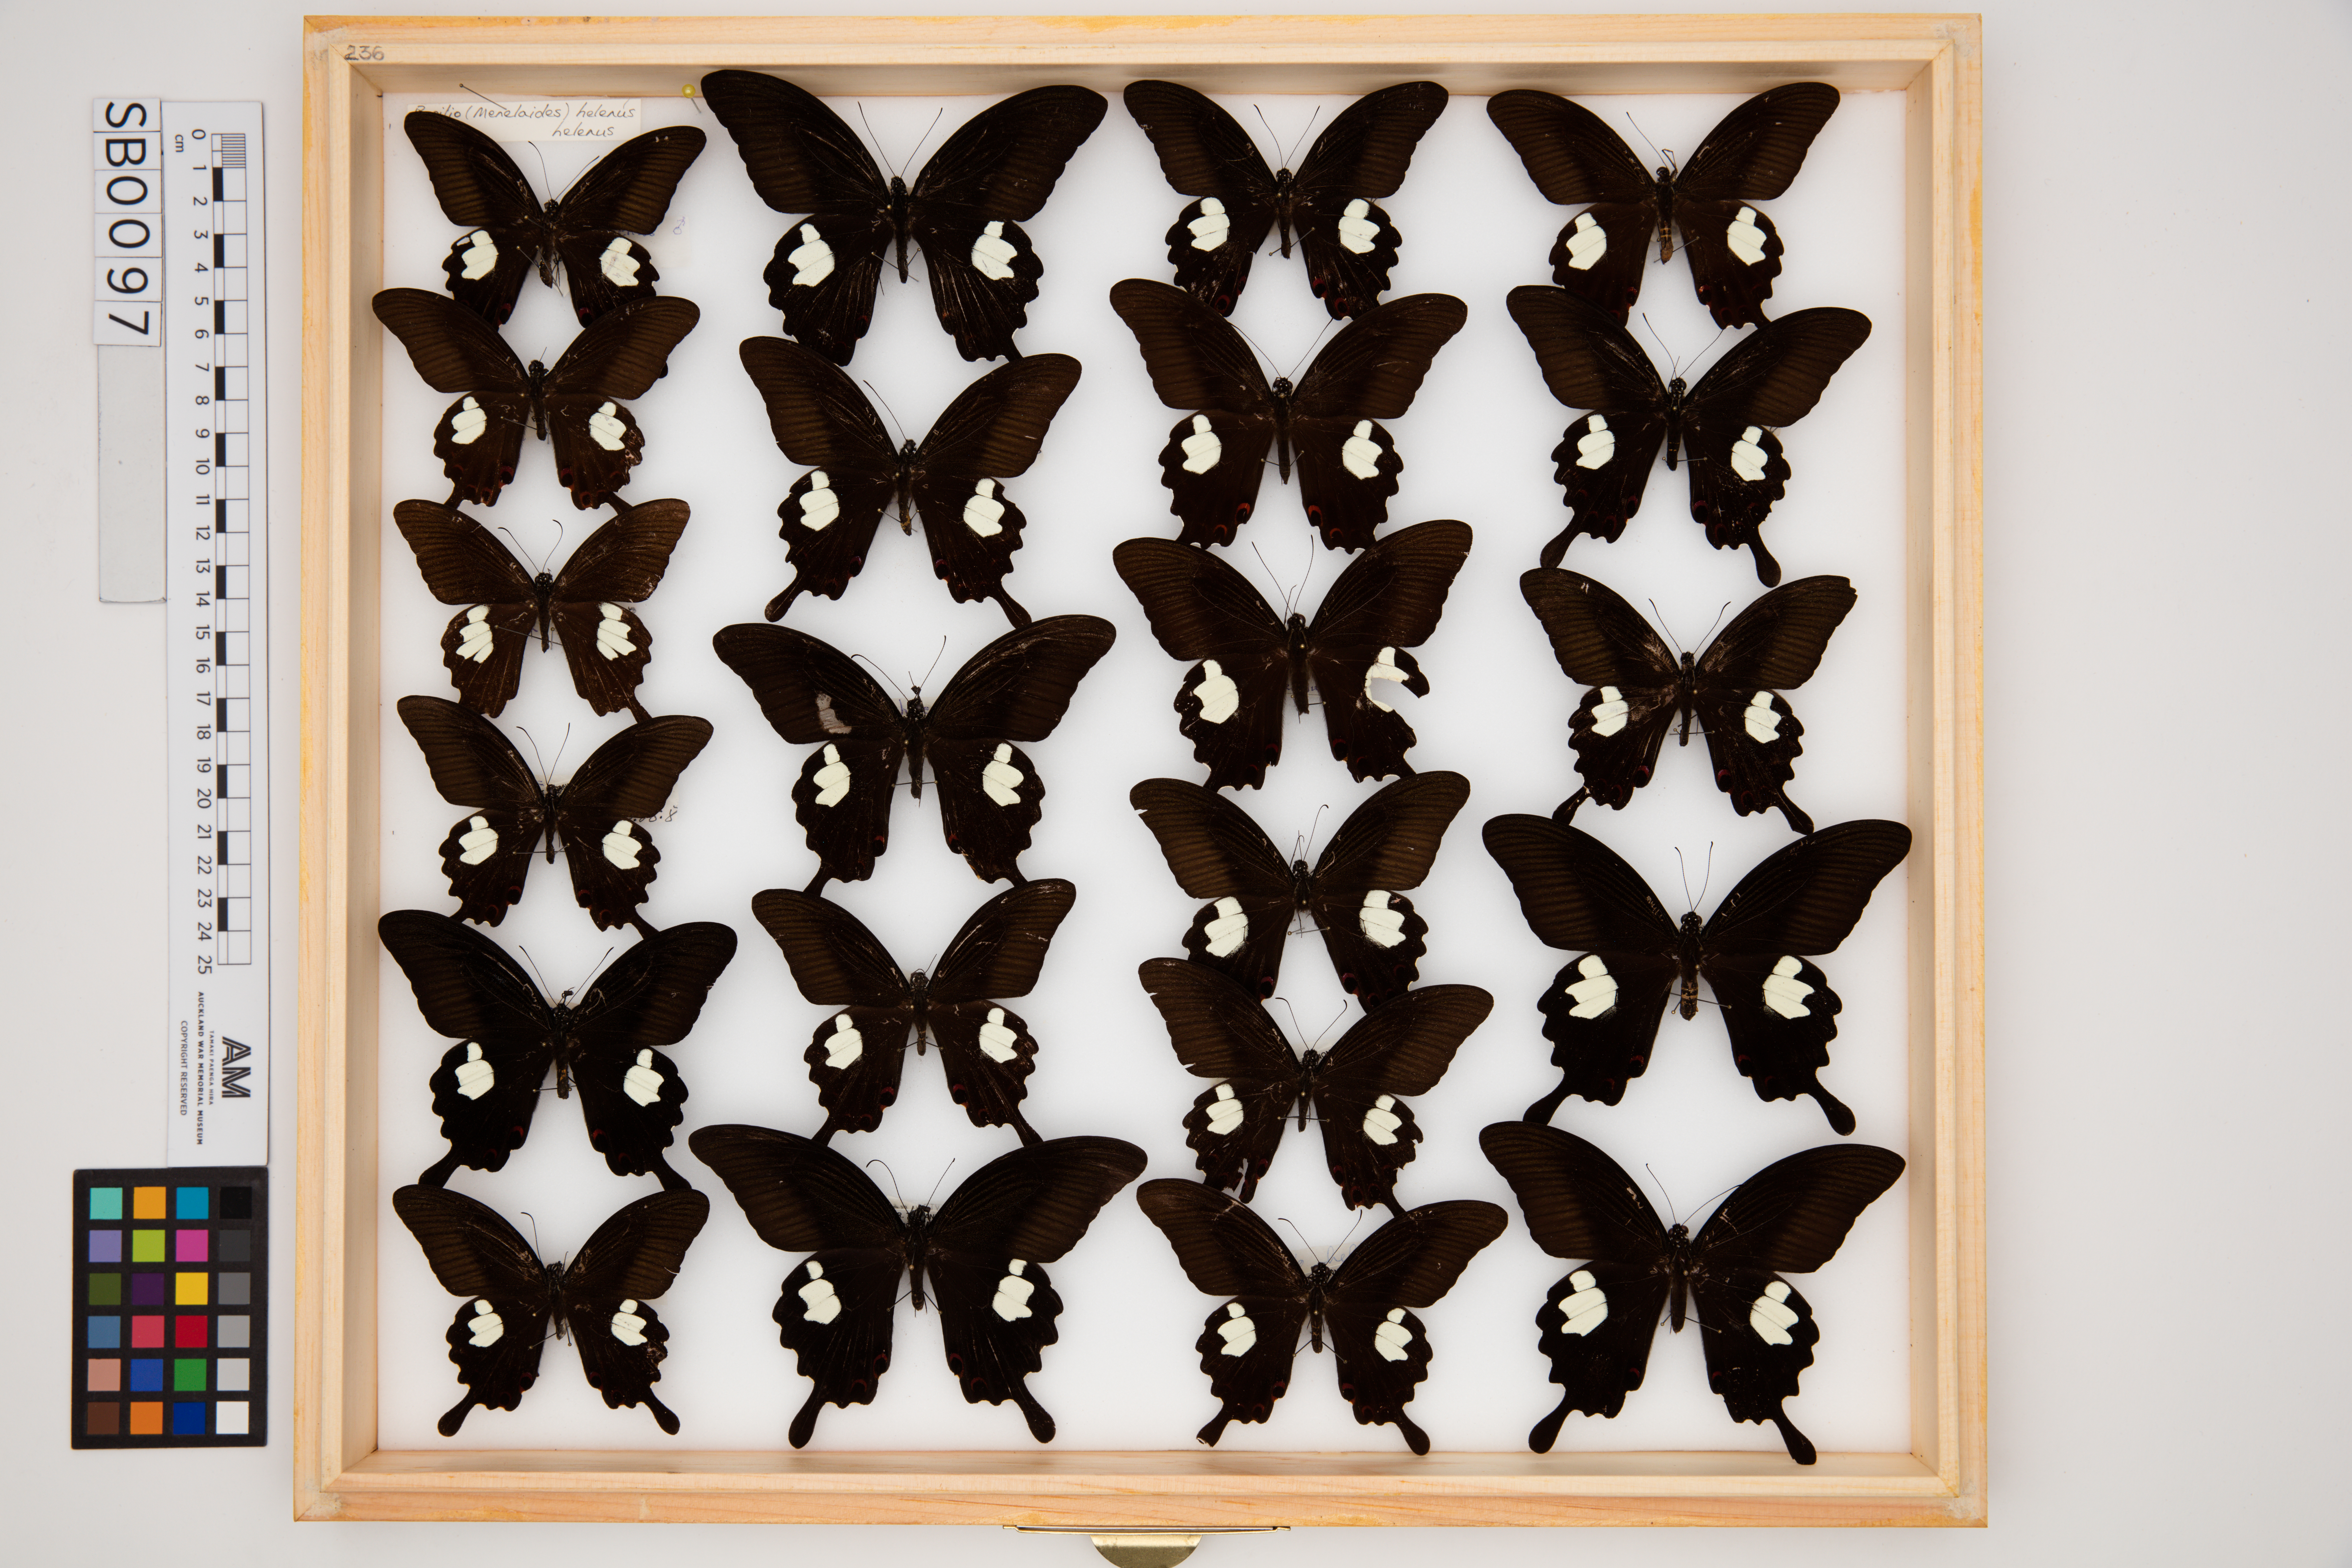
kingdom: Animalia
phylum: Arthropoda
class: Insecta
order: Lepidoptera
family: Papilionidae
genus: Papilio
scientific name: Papilio helenus
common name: Red helen
